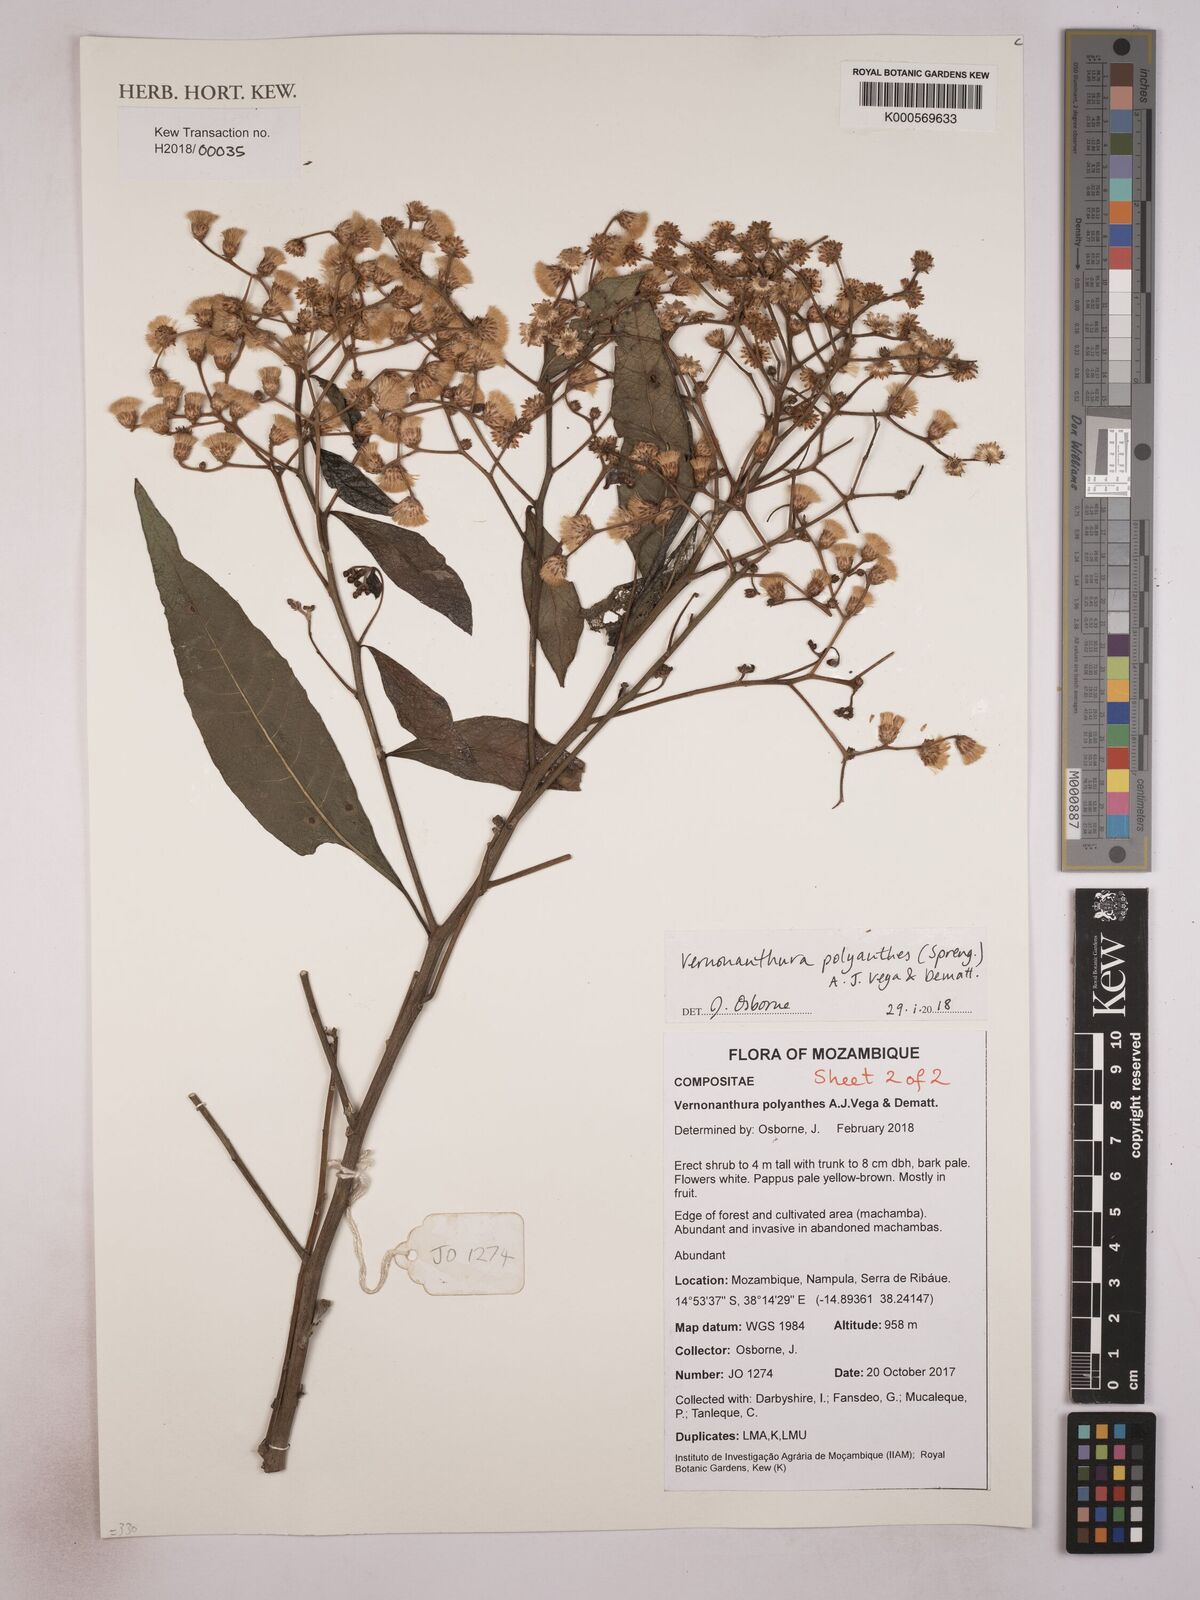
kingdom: Plantae
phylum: Tracheophyta
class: Magnoliopsida
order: Asterales
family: Asteraceae
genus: Vernonanthura
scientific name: Vernonanthura polyanthes
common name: Tree aster
